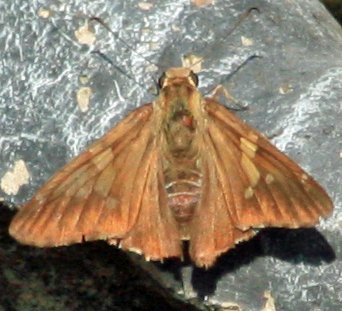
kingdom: Animalia
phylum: Arthropoda
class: Insecta
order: Lepidoptera
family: Hesperiidae
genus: Epargyreus
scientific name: Epargyreus clarus
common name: Silver-spotted Skipper
